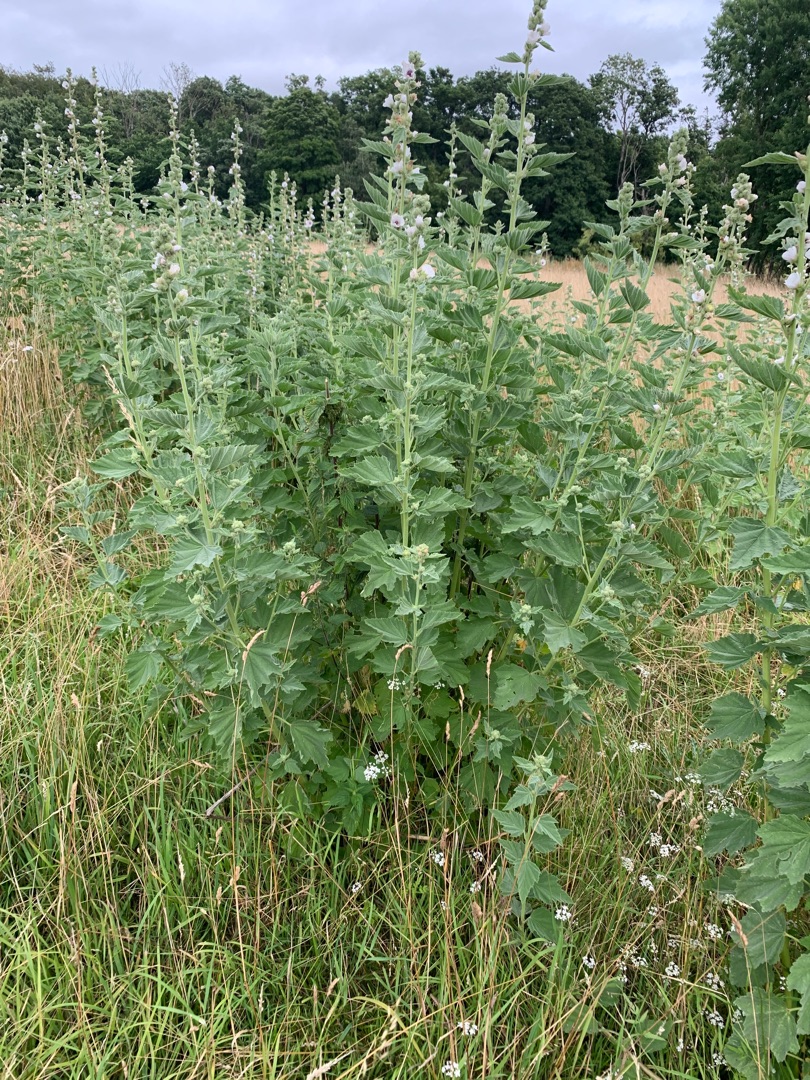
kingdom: Plantae
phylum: Tracheophyta
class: Magnoliopsida
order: Malvales
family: Malvaceae
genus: Althaea
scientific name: Althaea officinalis
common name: Lægestokrose
